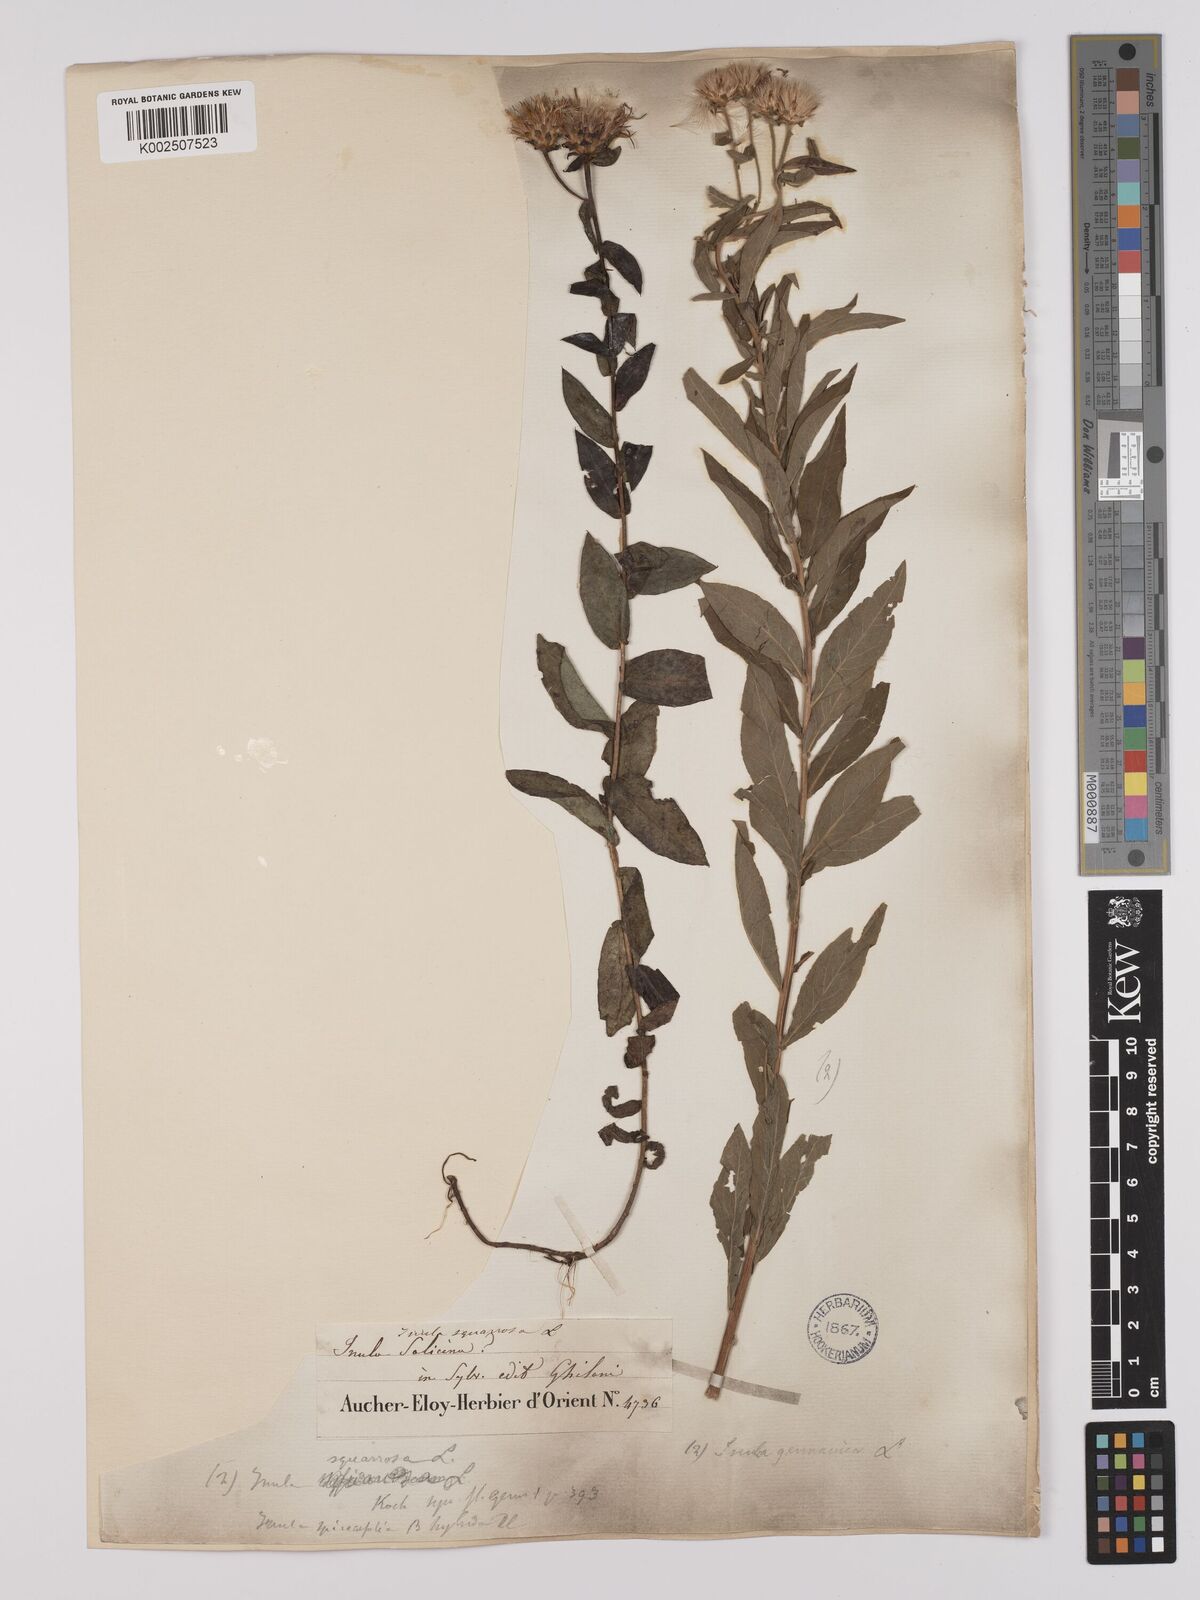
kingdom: Plantae
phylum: Tracheophyta
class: Magnoliopsida
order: Asterales
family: Asteraceae
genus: Pentanema
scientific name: Pentanema spiraeifolium
